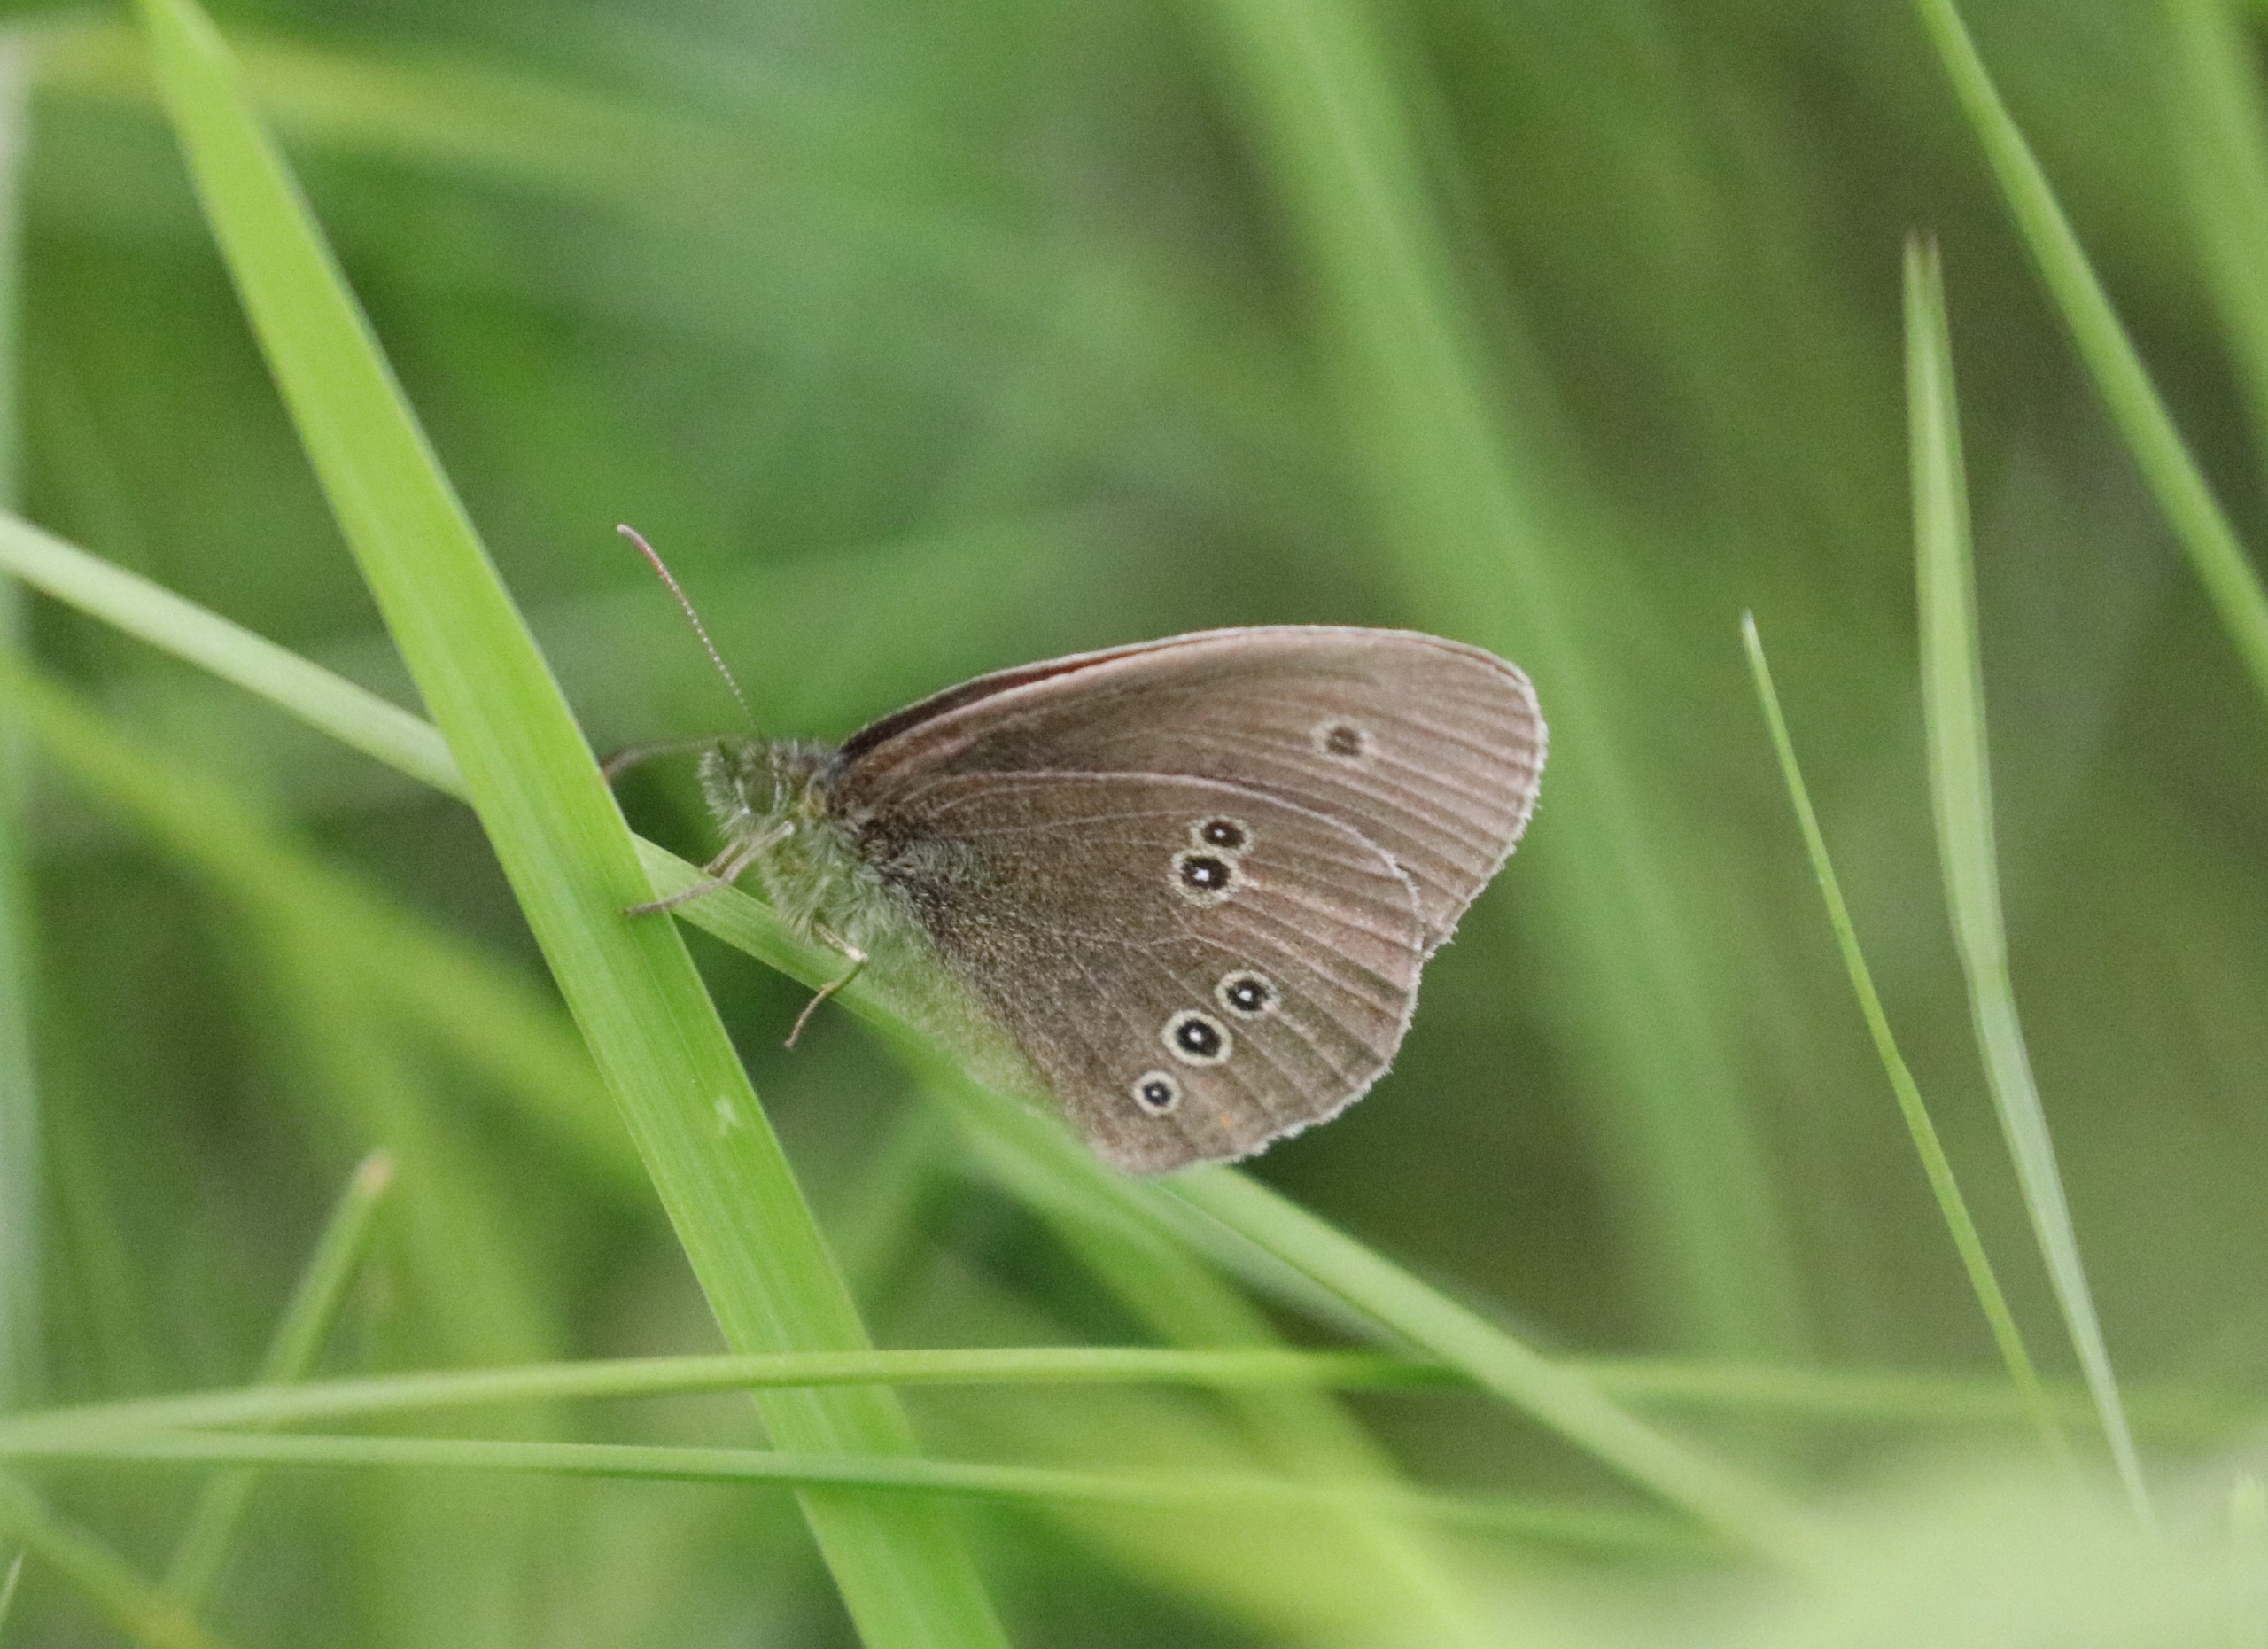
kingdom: Animalia
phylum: Arthropoda
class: Insecta
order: Lepidoptera
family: Nymphalidae
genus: Aphantopus
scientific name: Aphantopus hyperantus
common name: Engrandøje
